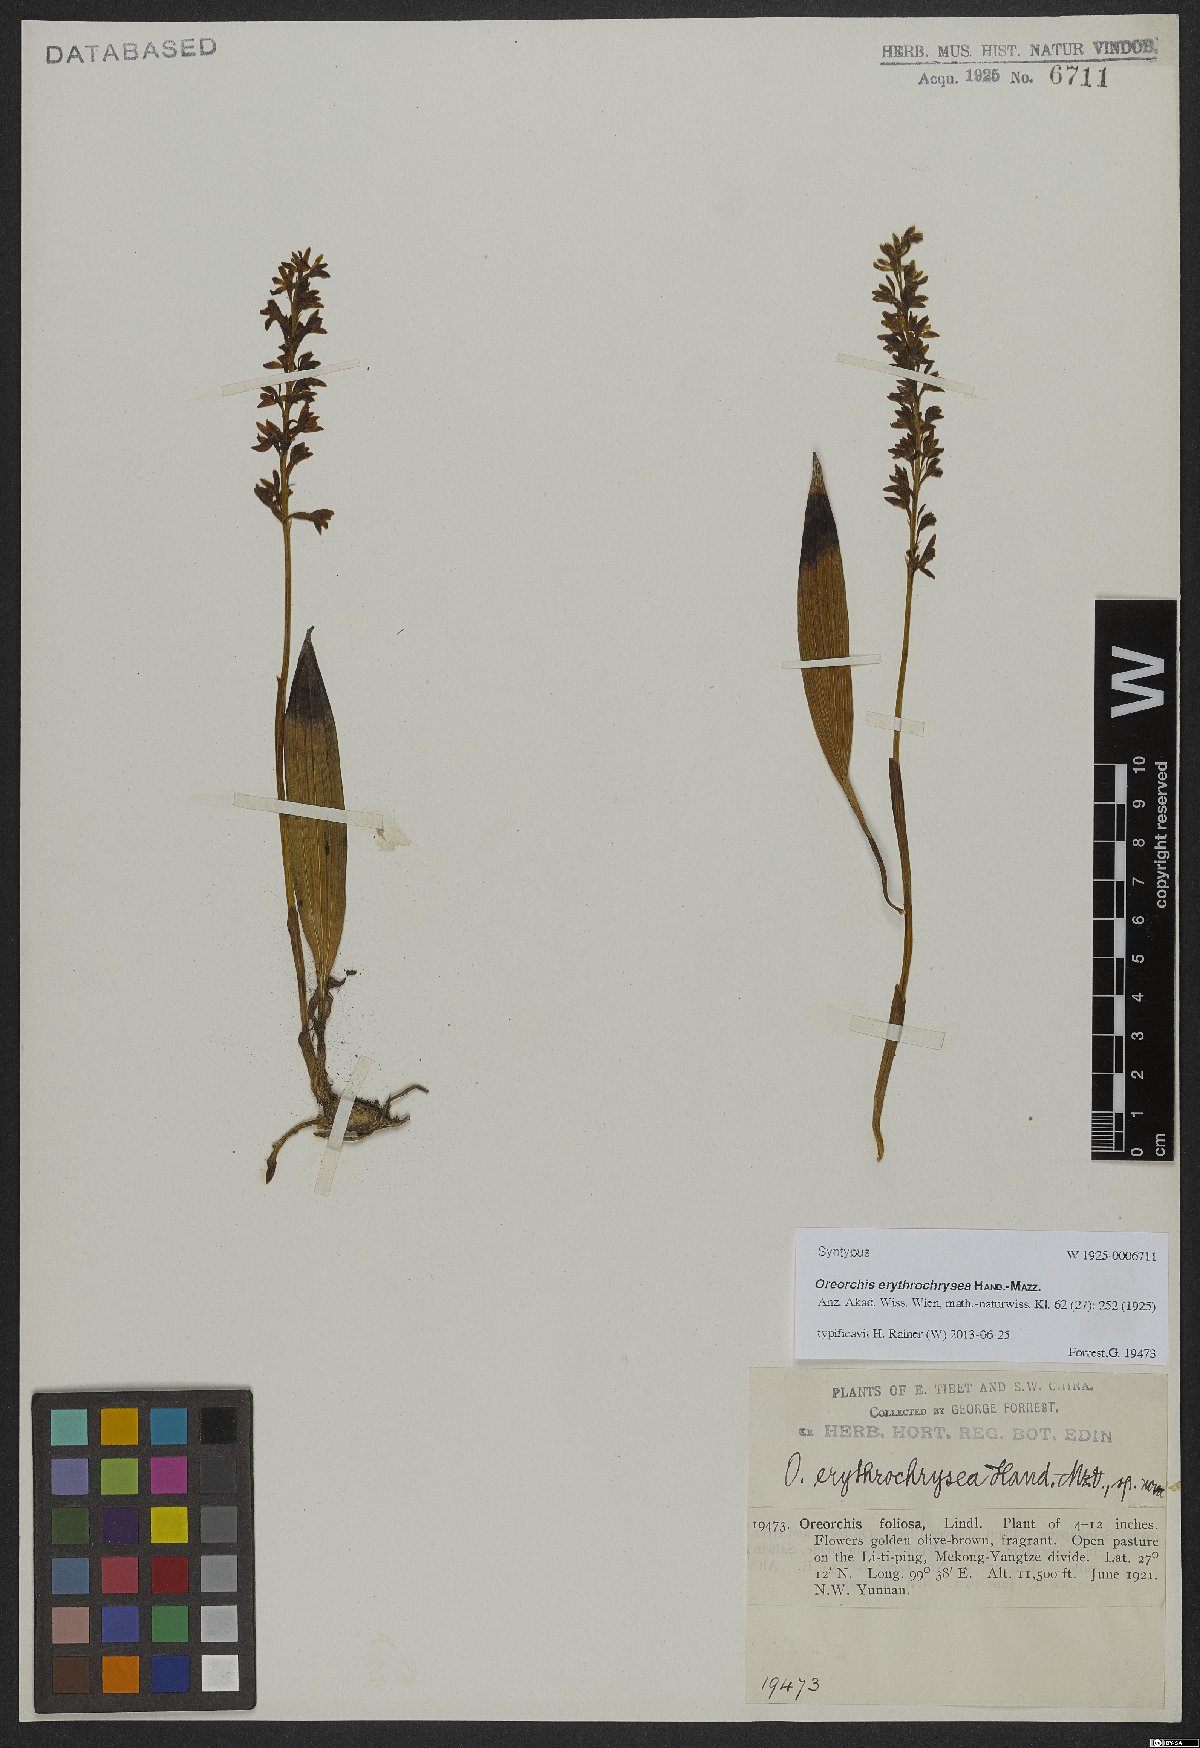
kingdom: Plantae
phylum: Tracheophyta
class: Liliopsida
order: Asparagales
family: Orchidaceae
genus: Oreorchis
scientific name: Oreorchis erythrochrysea
